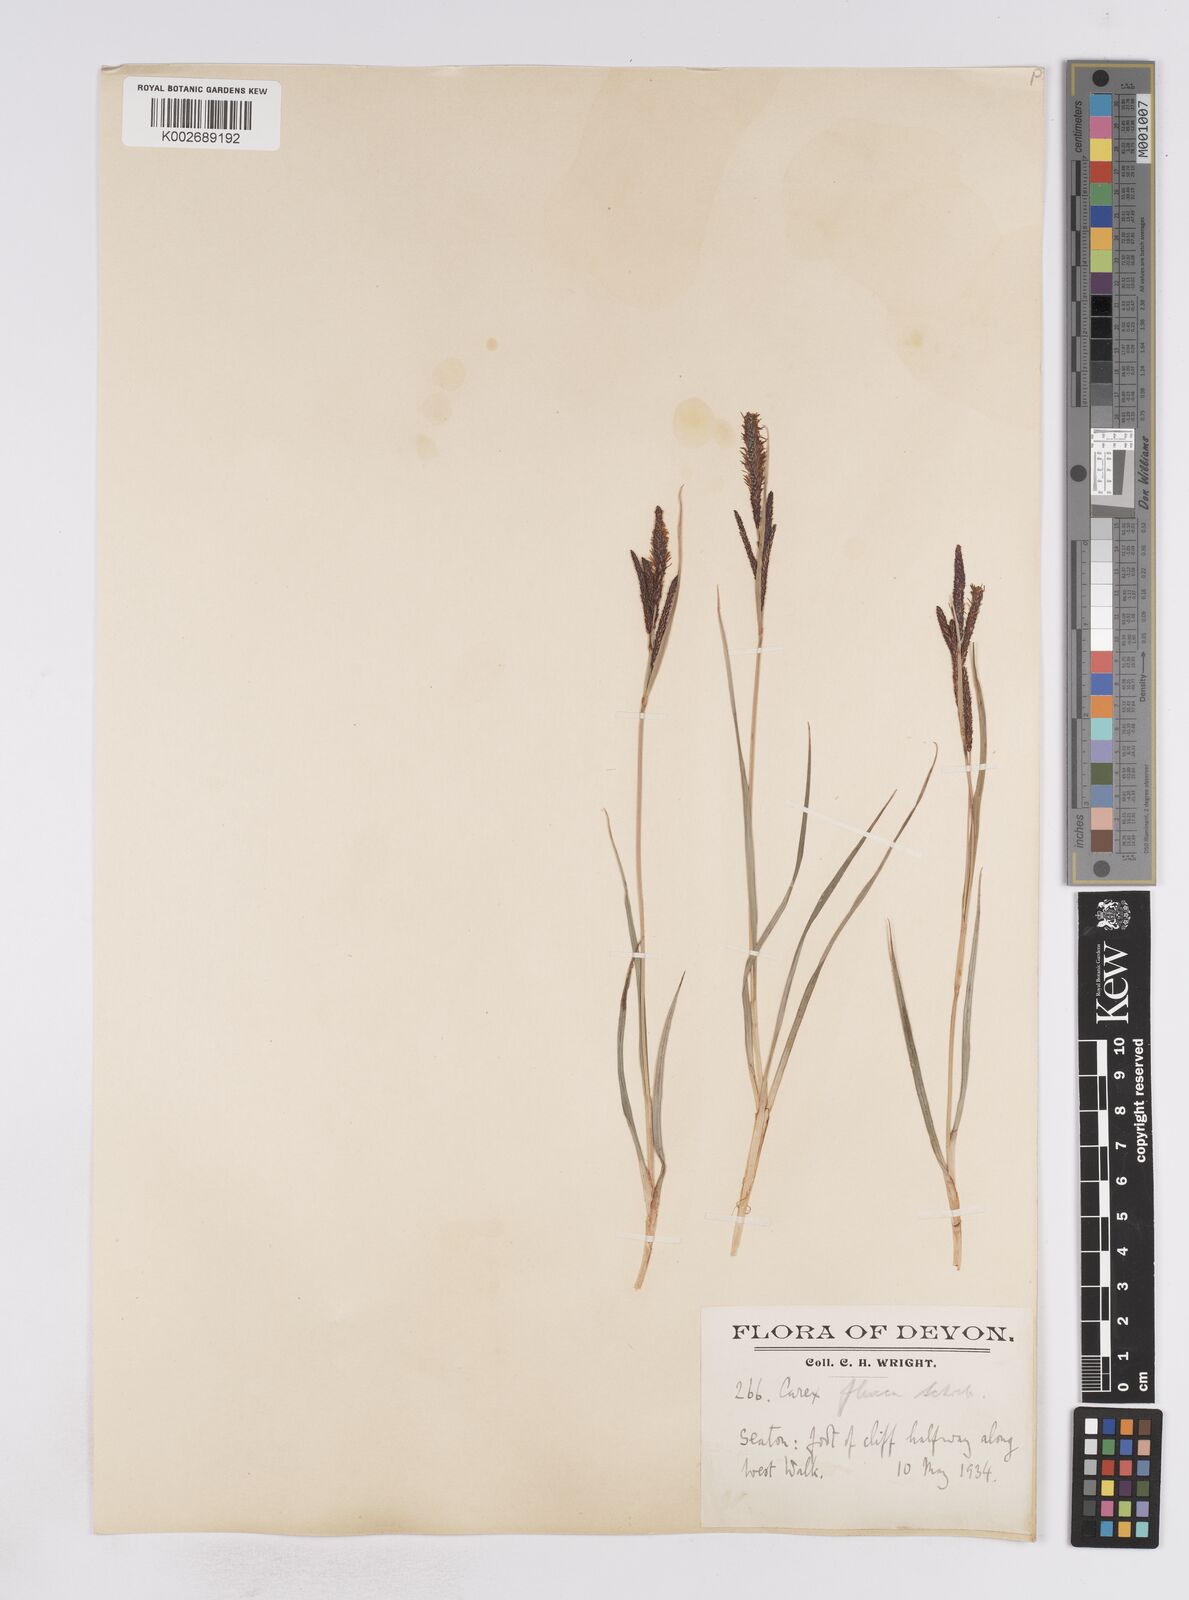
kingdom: Plantae
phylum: Tracheophyta
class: Liliopsida
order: Poales
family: Cyperaceae
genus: Carex
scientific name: Carex flacca
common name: Glaucous sedge
